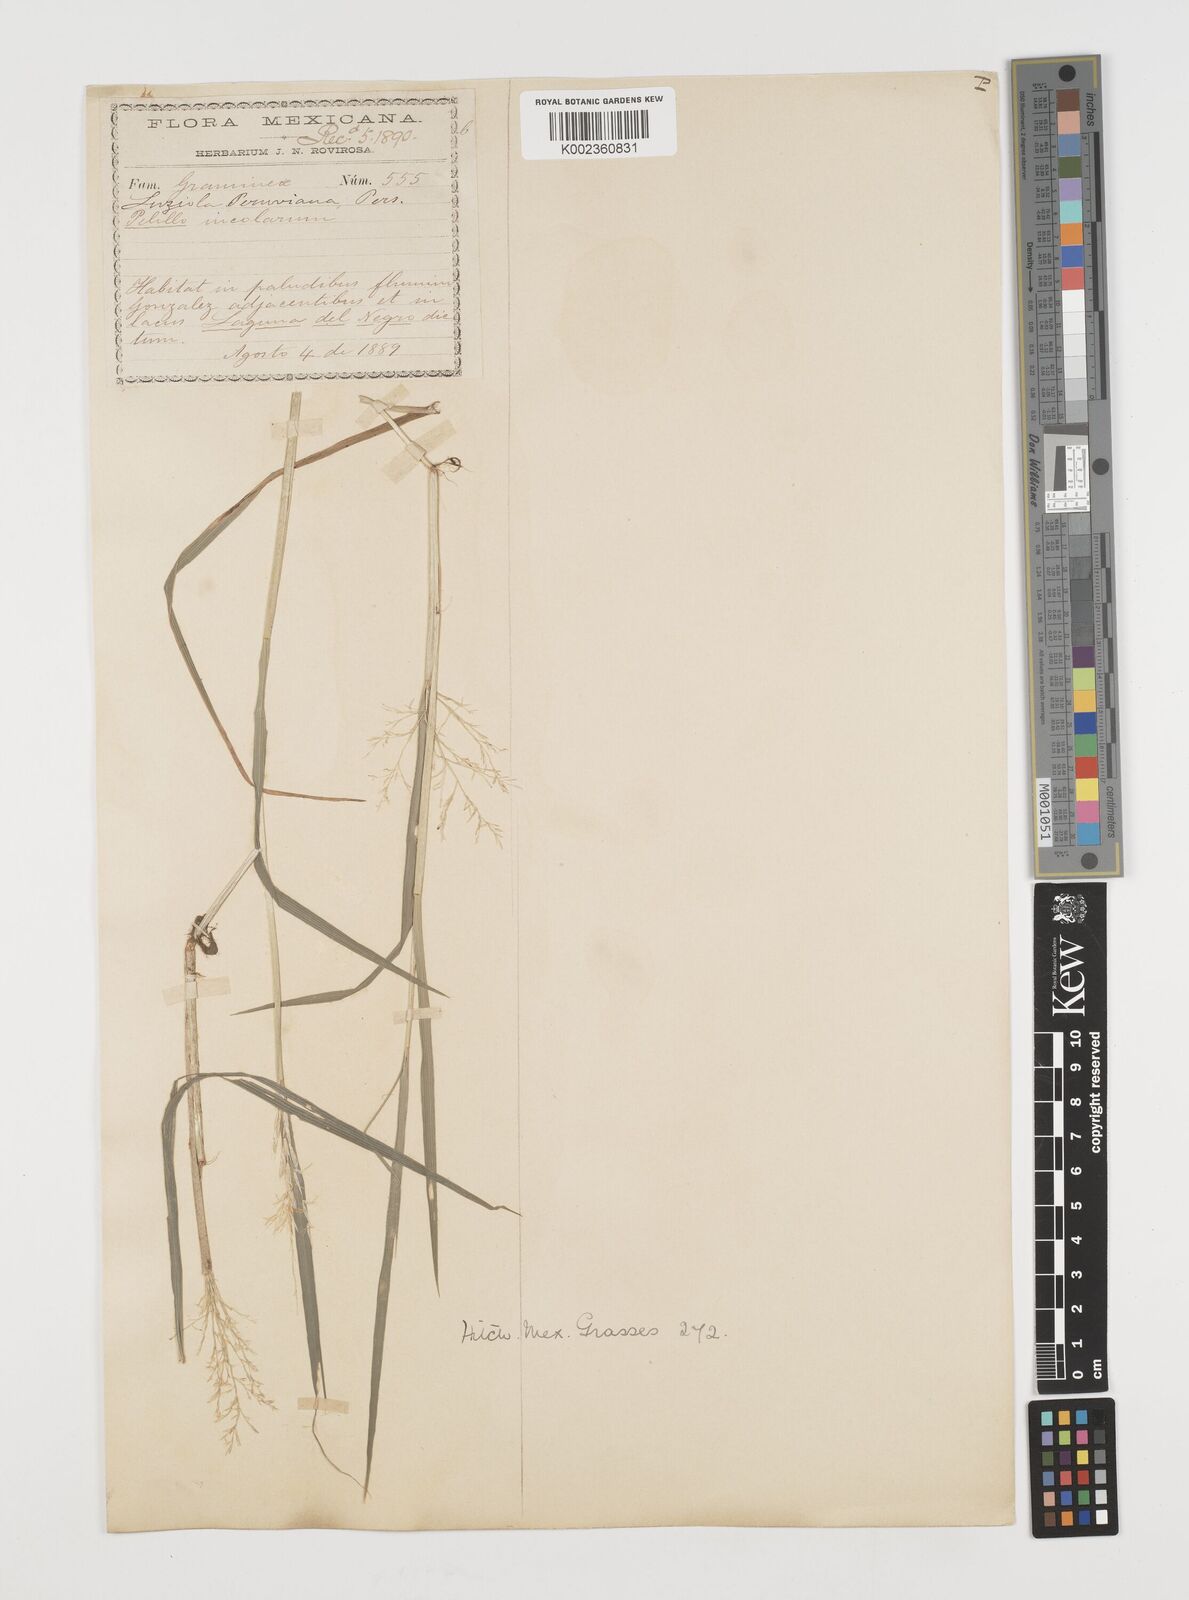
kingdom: Plantae
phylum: Tracheophyta
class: Liliopsida
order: Poales
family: Poaceae
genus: Luziola
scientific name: Luziola peruviana
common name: Peruvian watergrass
